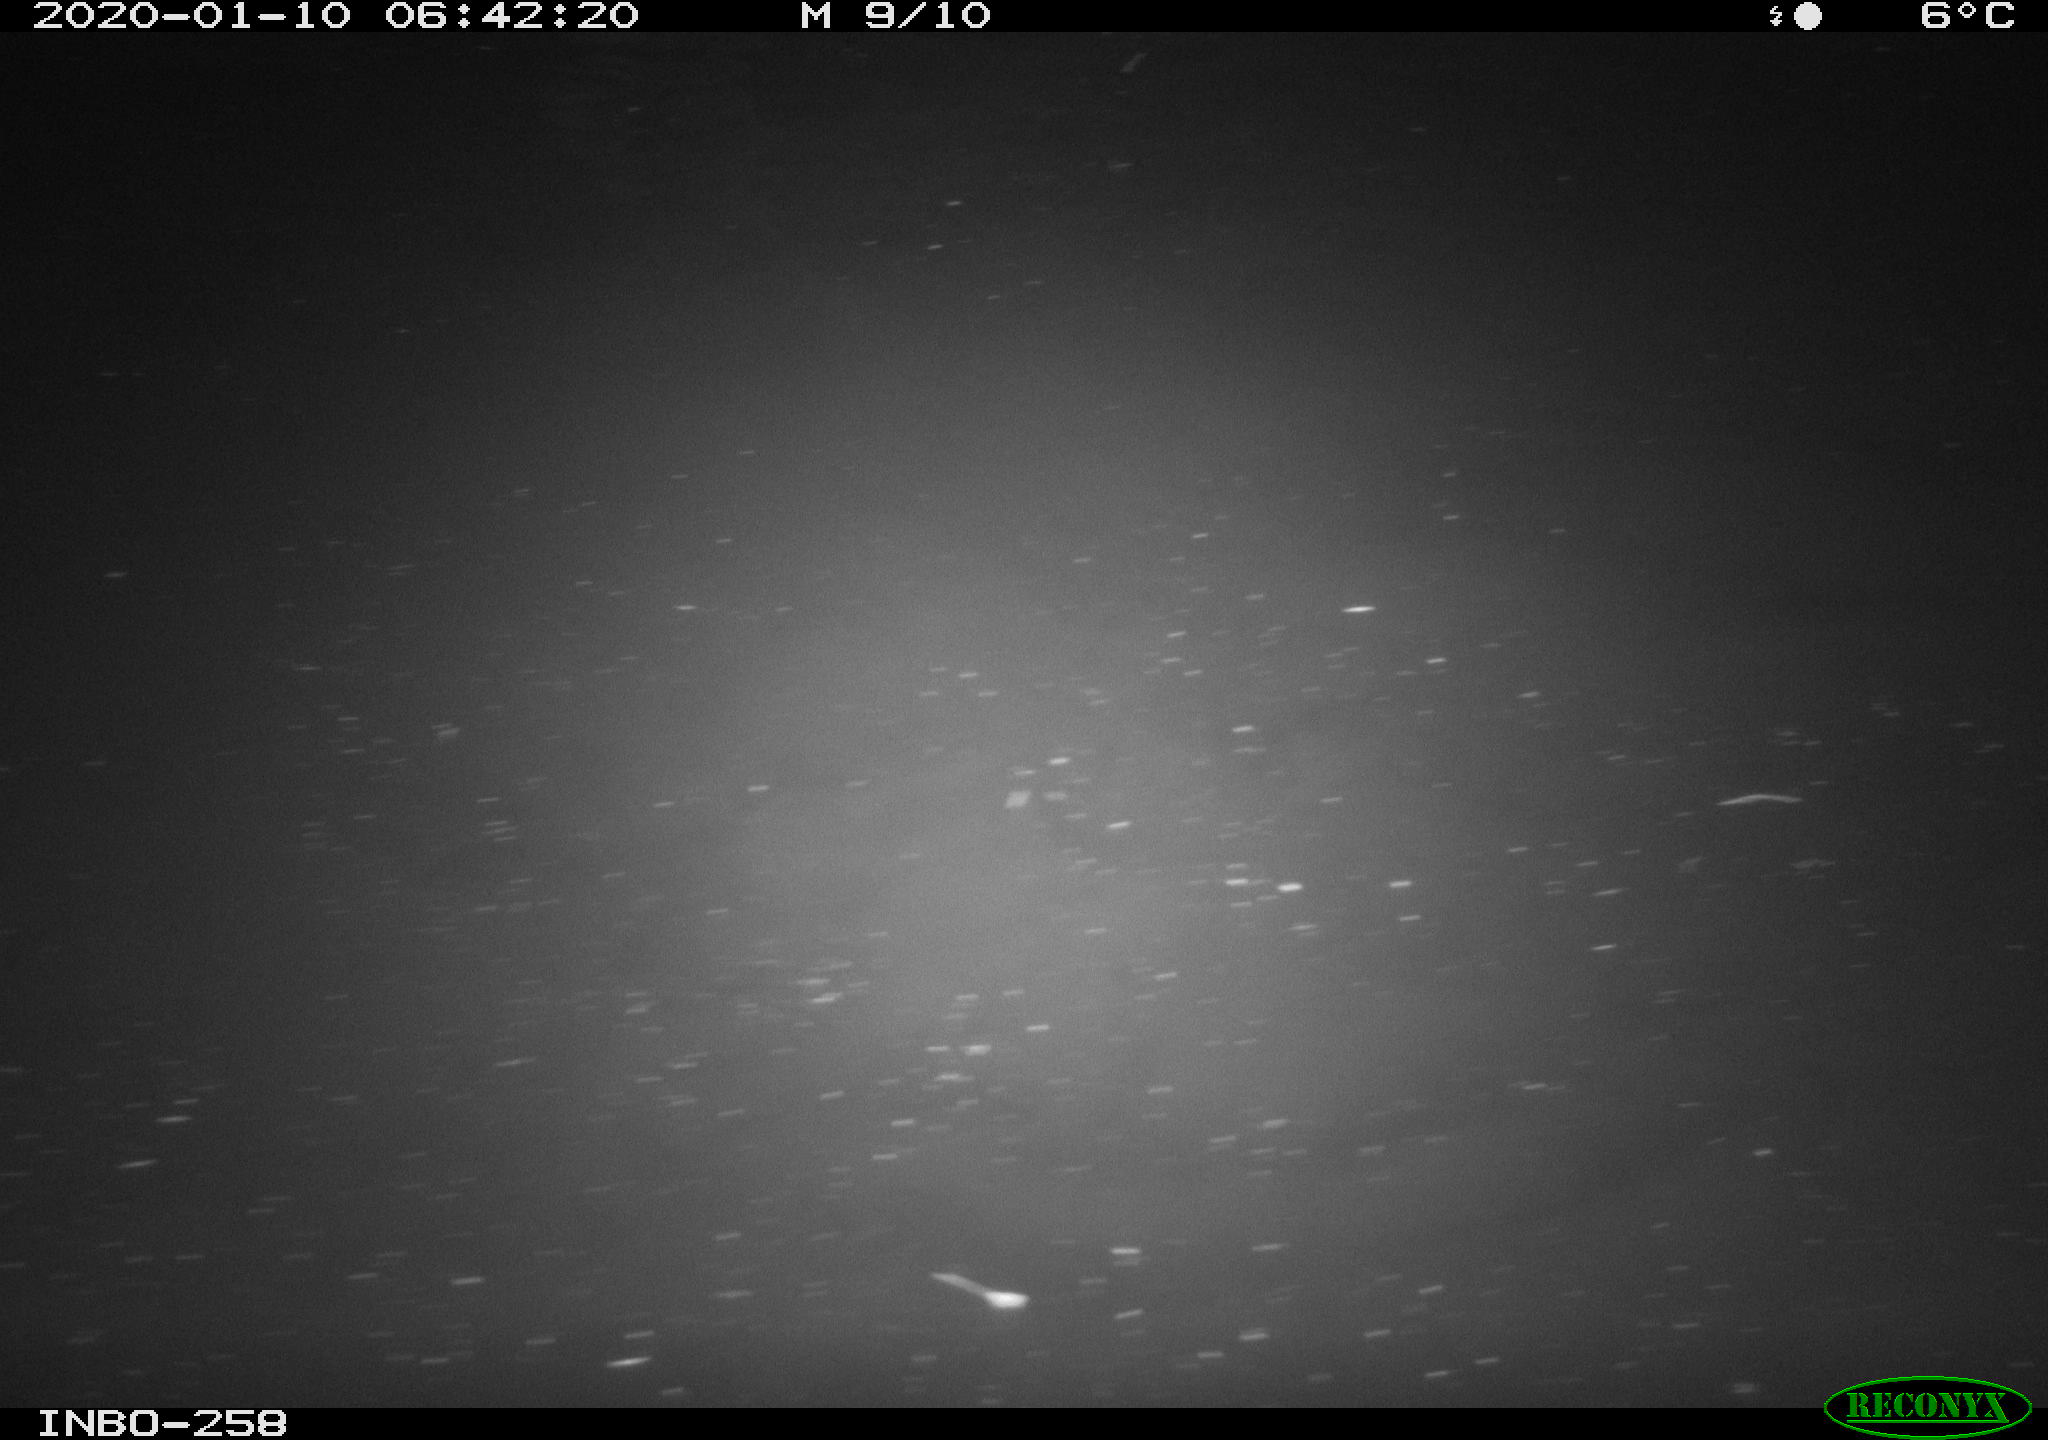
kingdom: Animalia
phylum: Chordata
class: Aves
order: Anseriformes
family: Anatidae
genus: Anas
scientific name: Anas platyrhynchos
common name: Mallard
